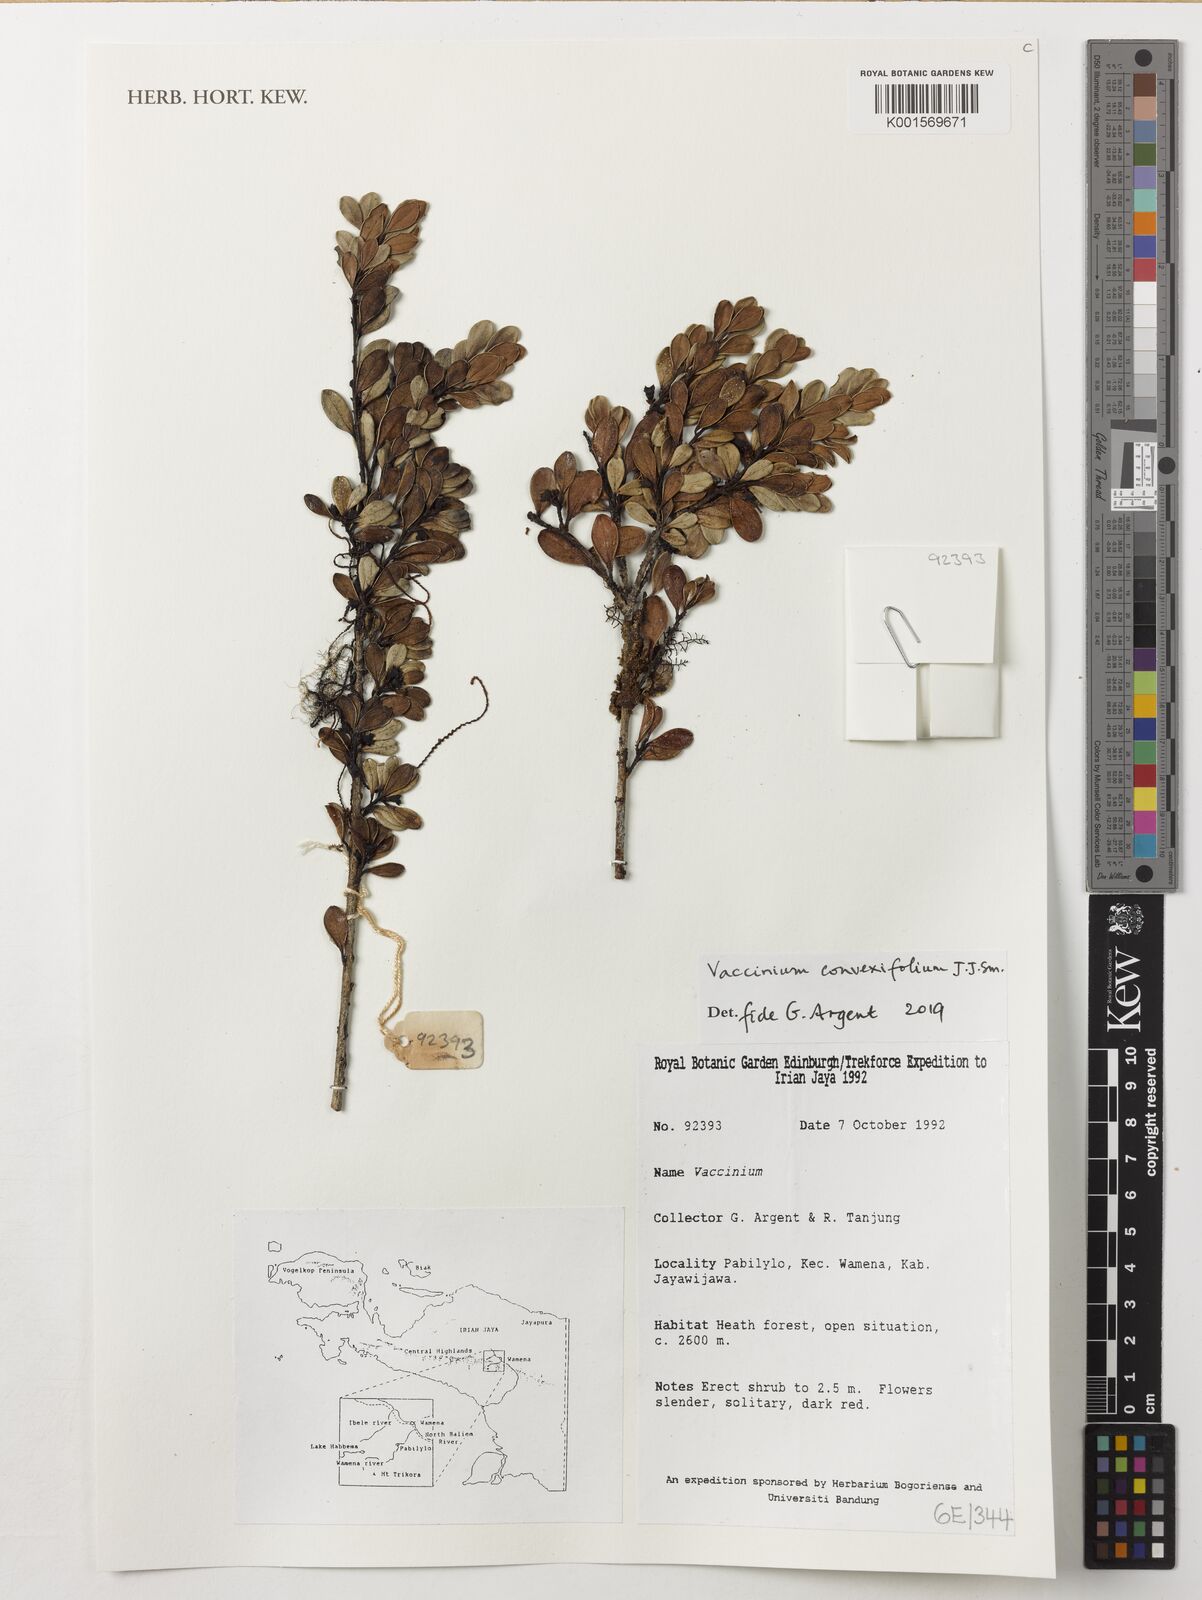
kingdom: Plantae
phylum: Tracheophyta
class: Magnoliopsida
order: Ericales
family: Ericaceae
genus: Vaccinium
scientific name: Vaccinium convexifolium
